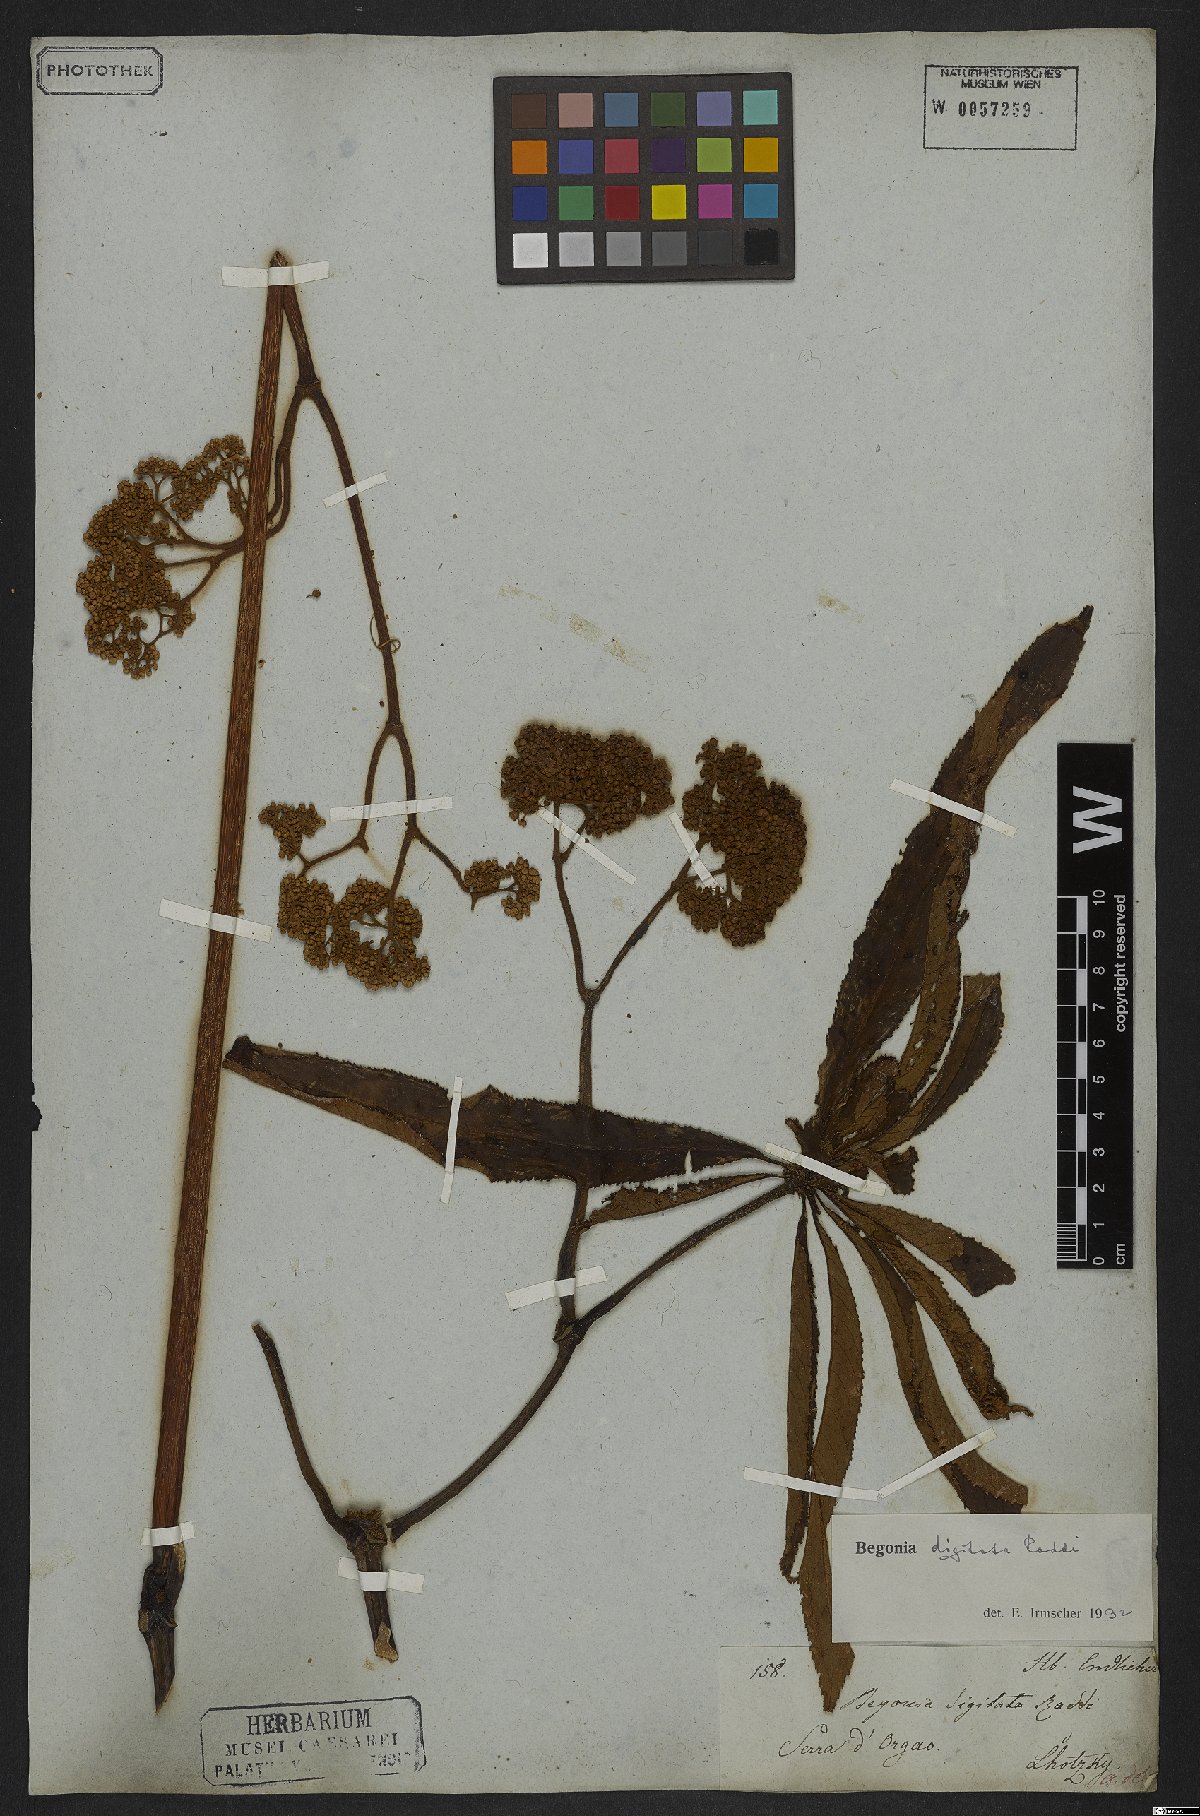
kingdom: Plantae
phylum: Tracheophyta
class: Magnoliopsida
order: Cucurbitales
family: Begoniaceae
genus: Begonia
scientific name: Begonia digitata
